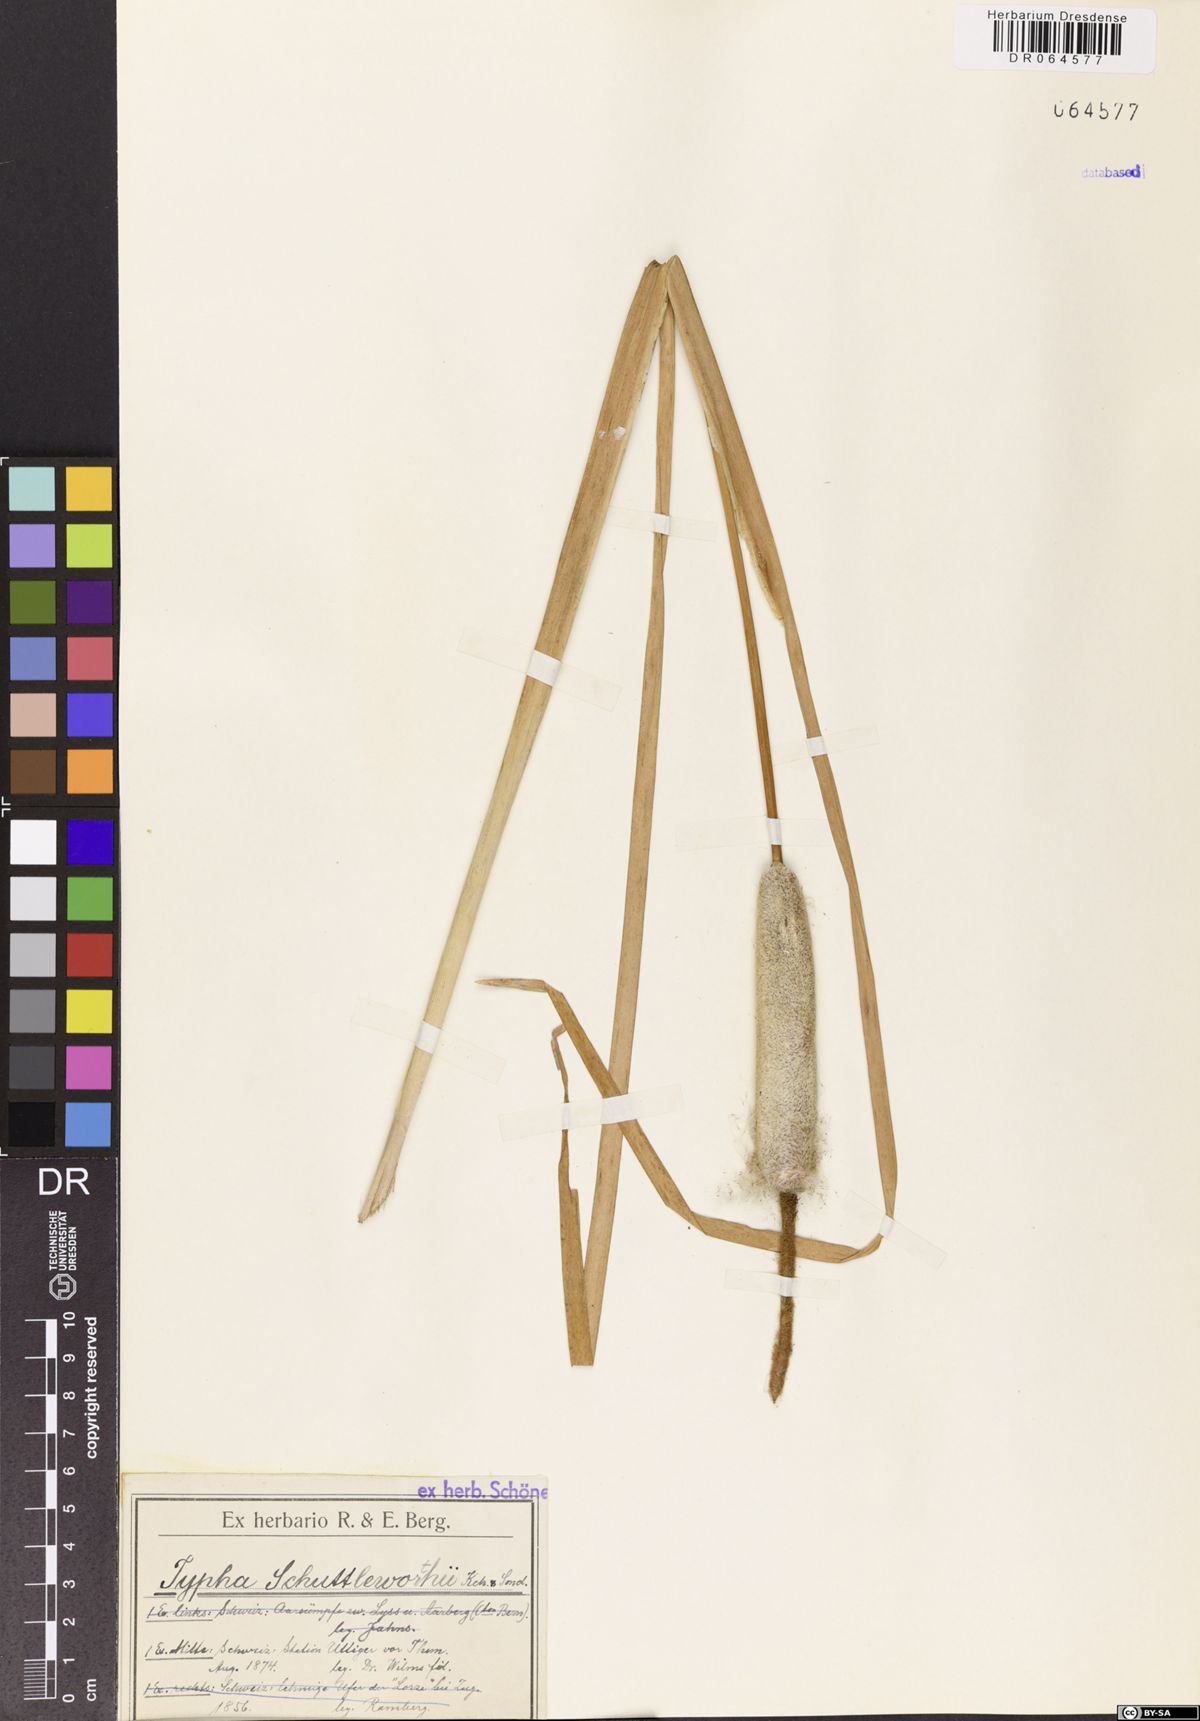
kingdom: Plantae
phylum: Tracheophyta
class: Liliopsida
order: Poales
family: Typhaceae
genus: Typha
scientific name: Typha shuttleworthii
